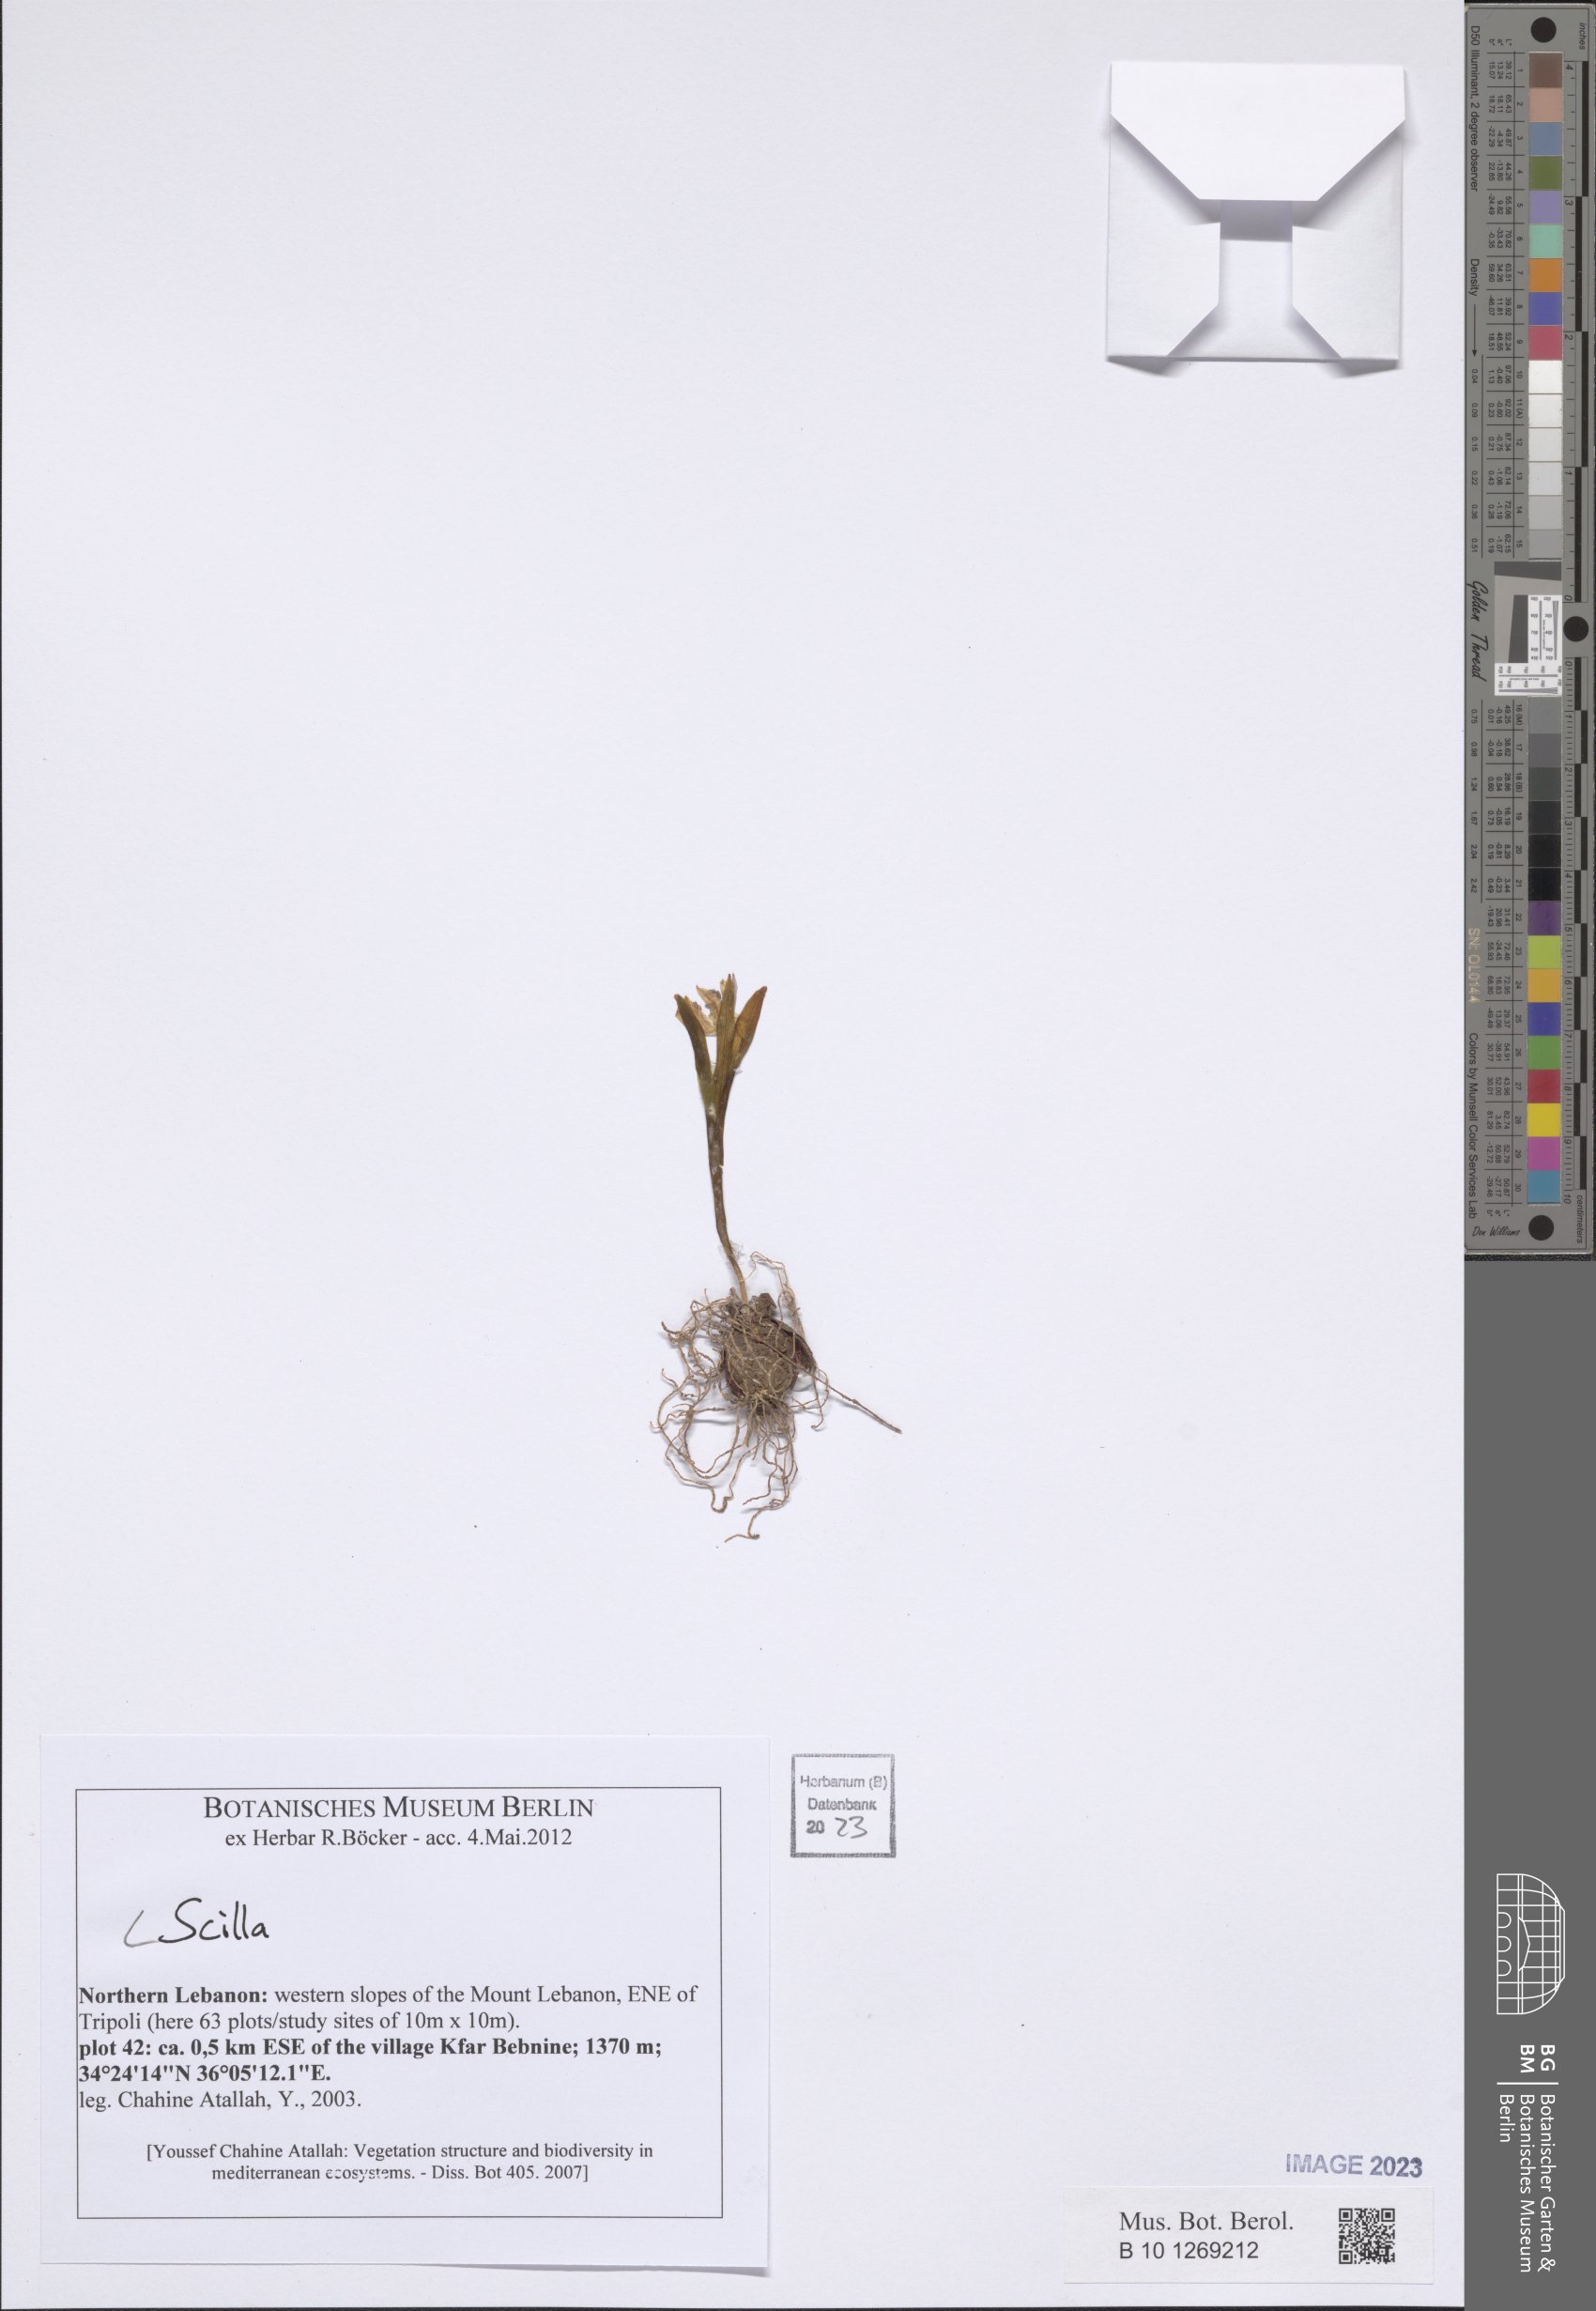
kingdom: Plantae
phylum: Tracheophyta
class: Liliopsida
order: Asparagales
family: Asparagaceae
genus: Scilla
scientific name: Scilla
